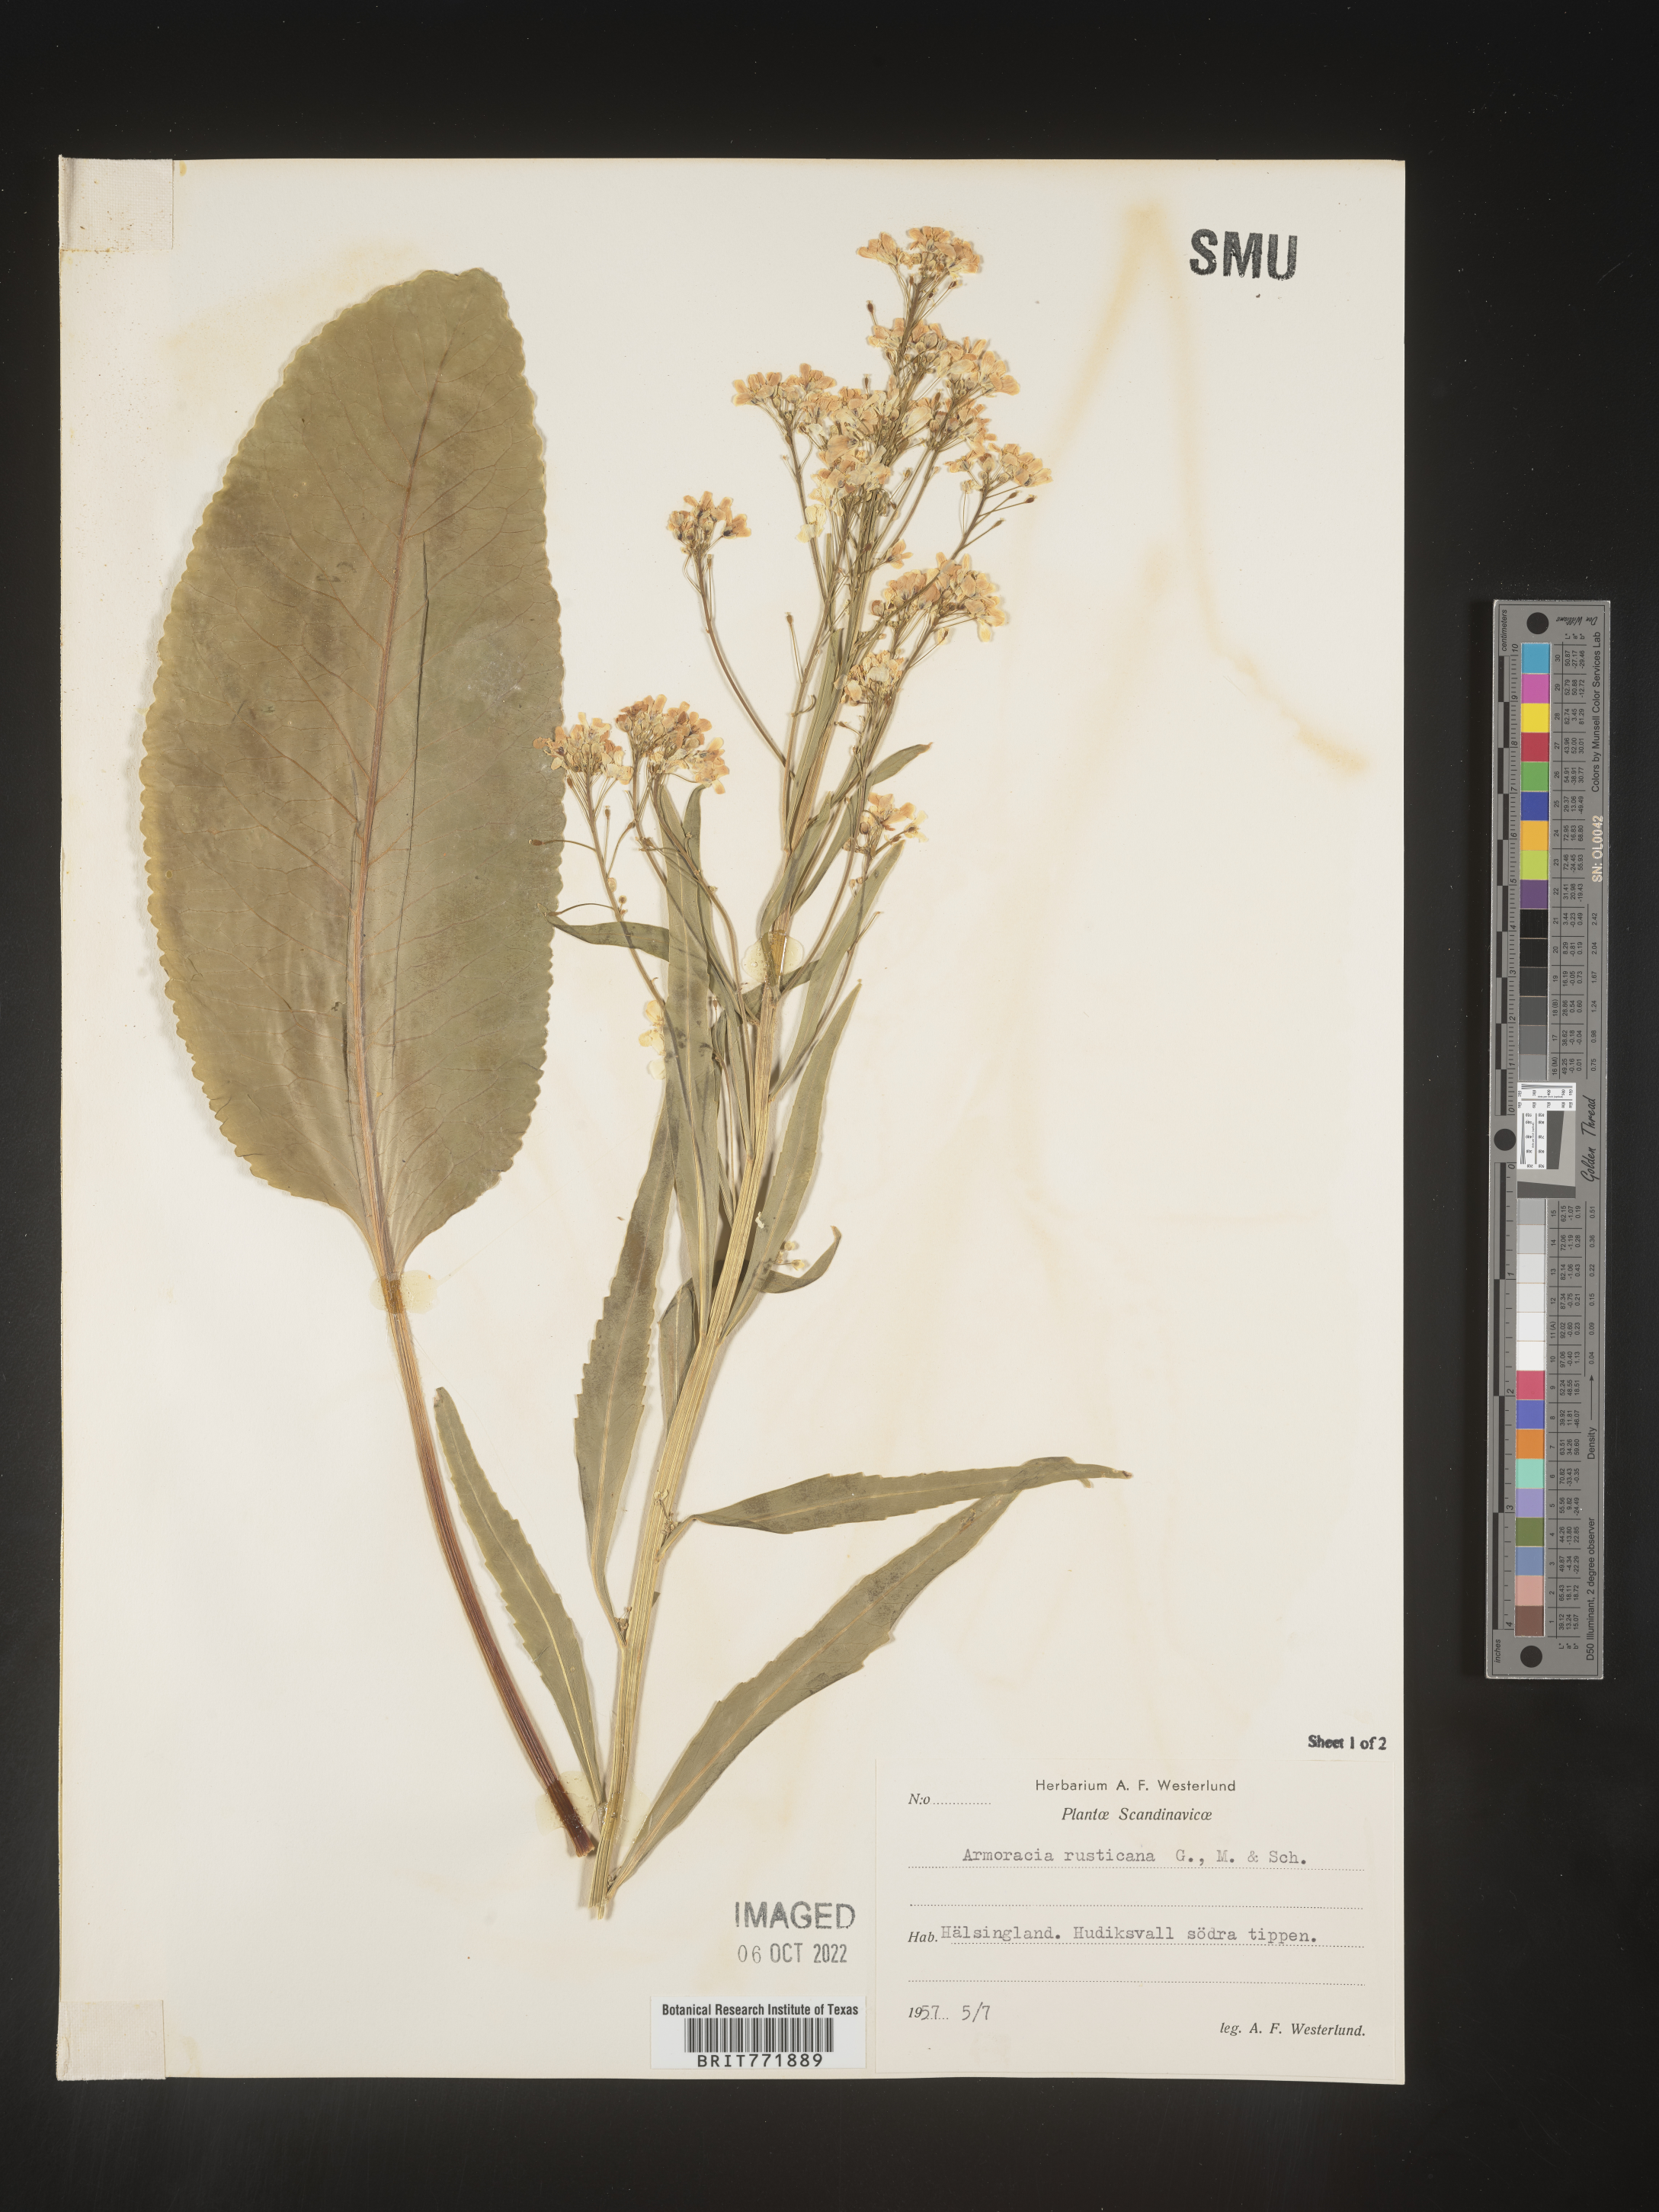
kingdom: Plantae
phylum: Tracheophyta
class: Magnoliopsida
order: Brassicales
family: Brassicaceae
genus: Armoracia
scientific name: Armoracia
